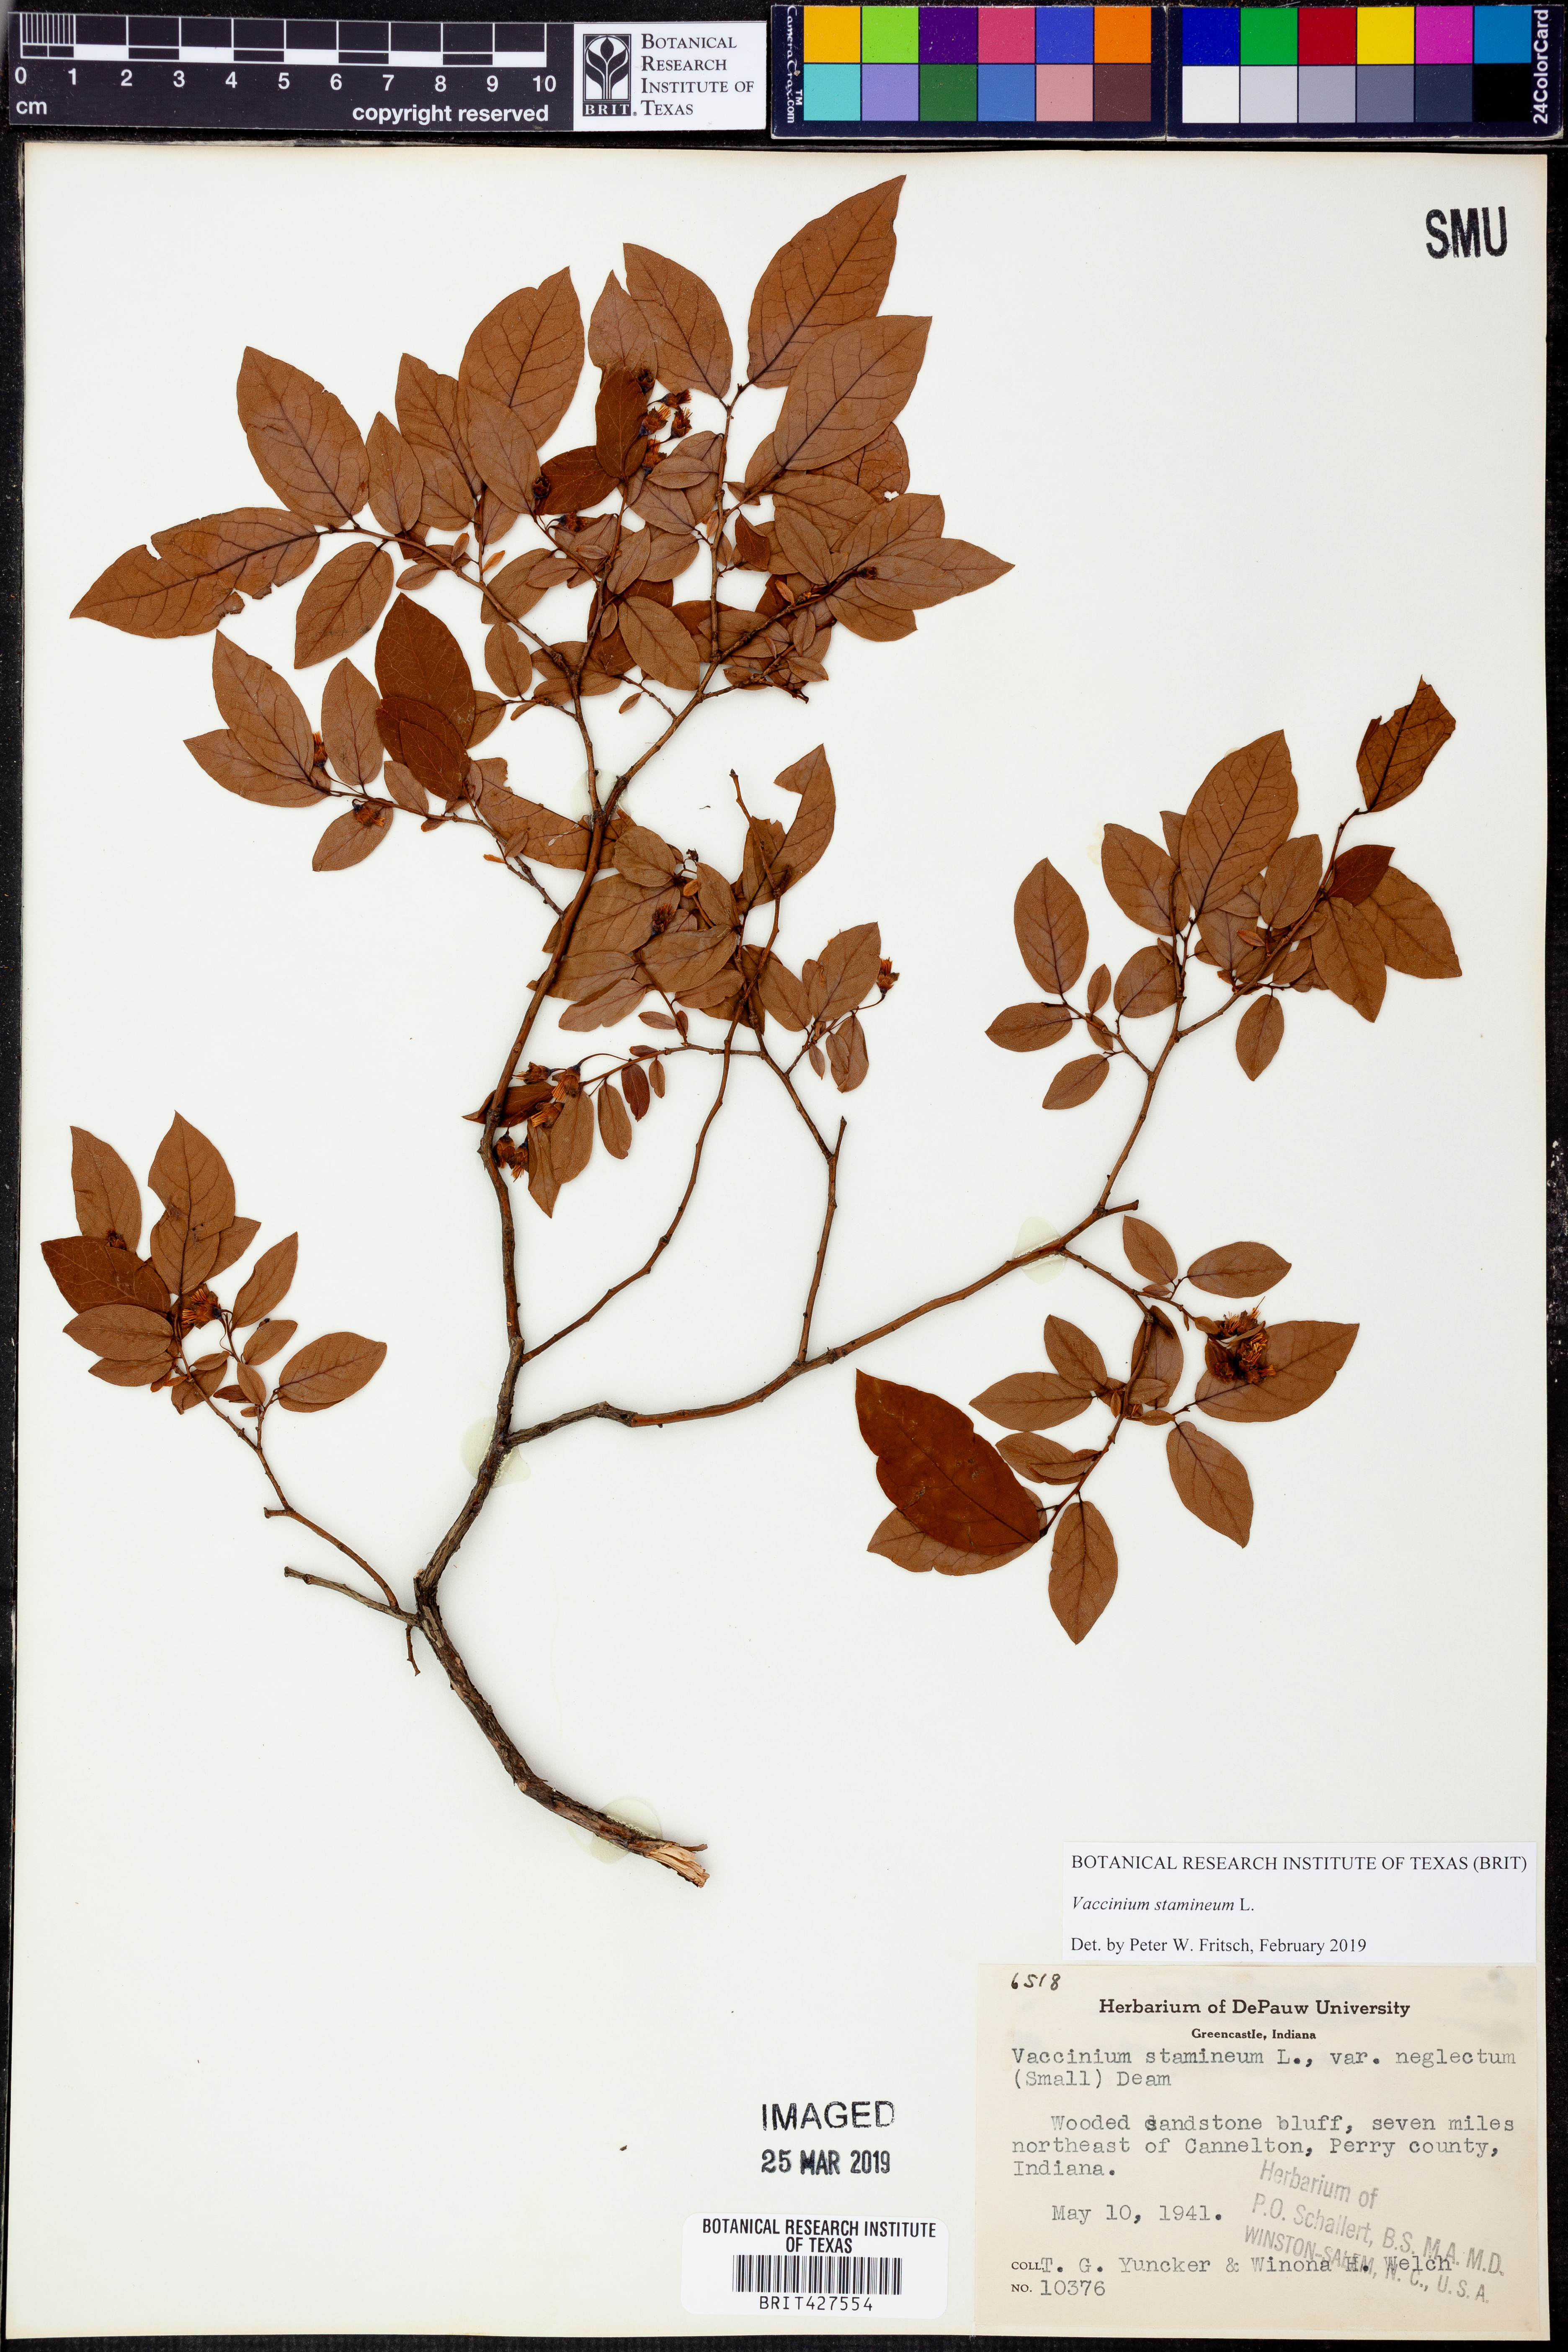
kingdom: Plantae
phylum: Tracheophyta
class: Magnoliopsida
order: Ericales
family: Ericaceae
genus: Vaccinium
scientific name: Vaccinium stamineum
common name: Deerberry
